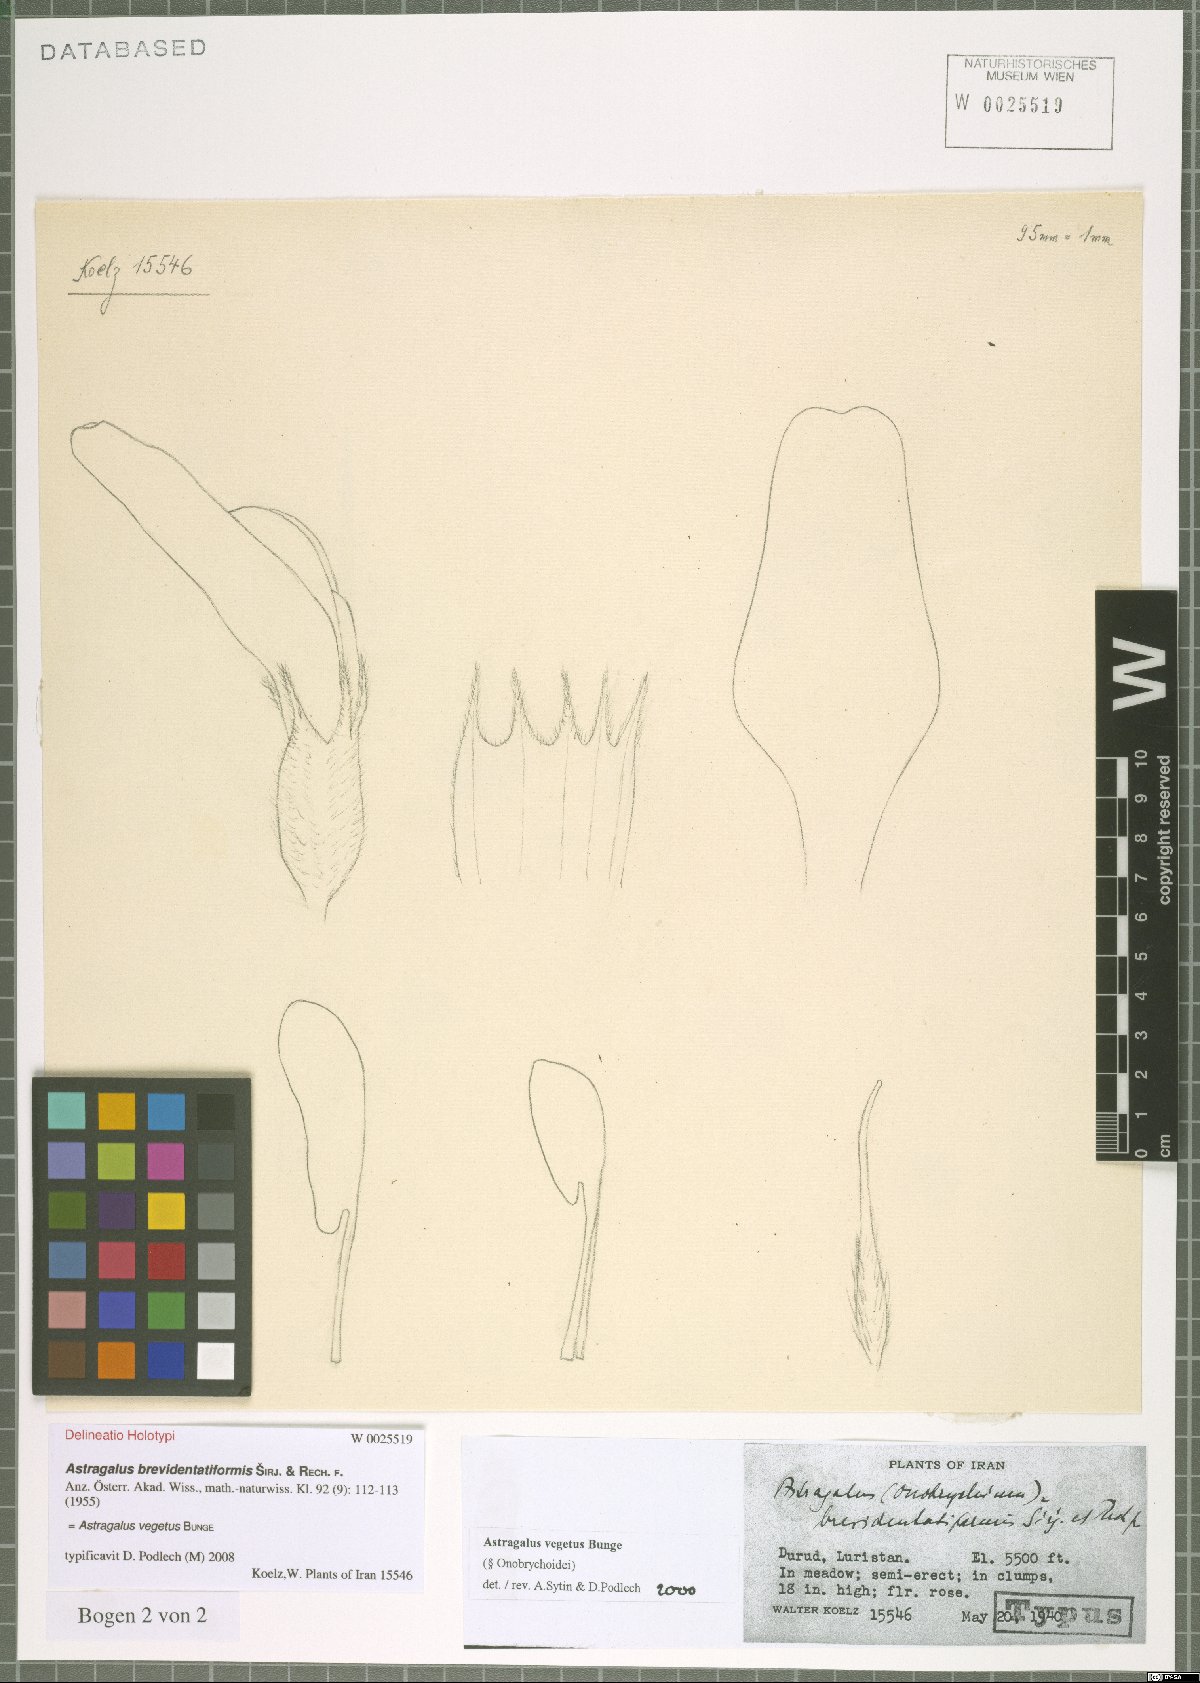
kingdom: Plantae
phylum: Tracheophyta
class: Magnoliopsida
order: Fabales
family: Fabaceae
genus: Astragalus
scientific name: Astragalus vegetus
